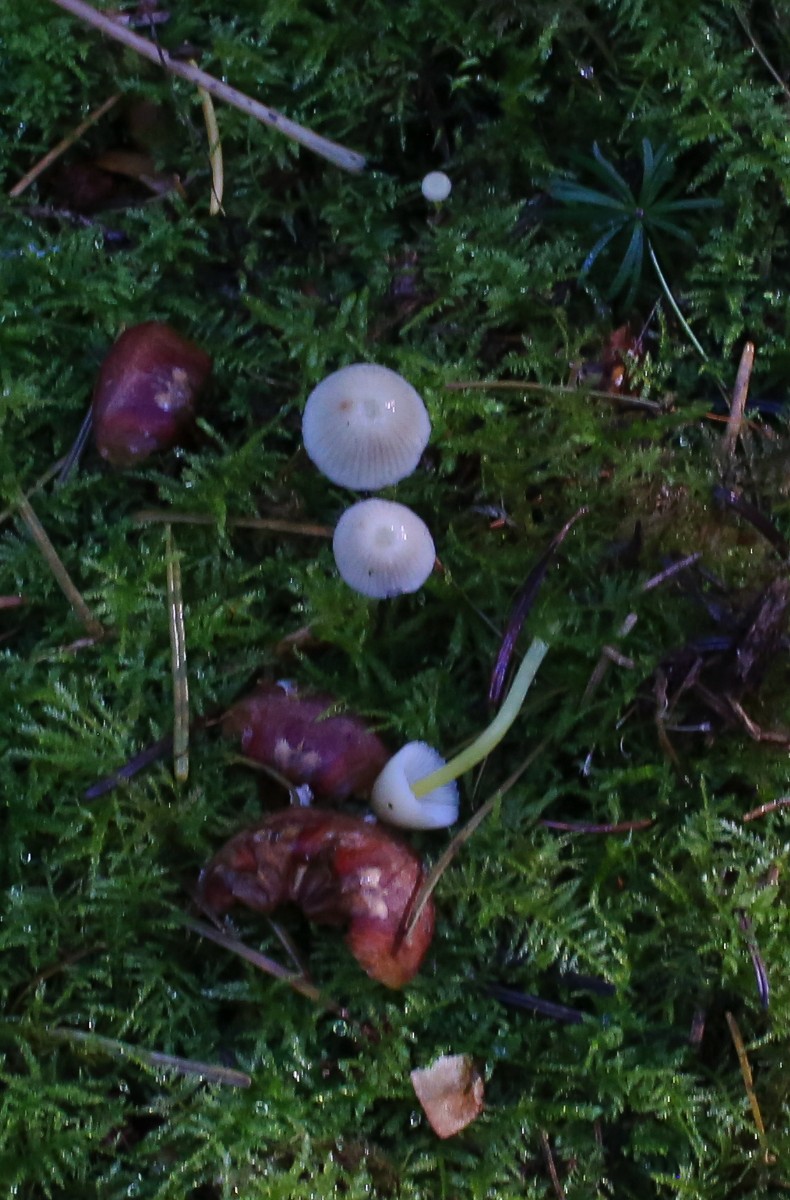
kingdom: Fungi
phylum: Basidiomycota
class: Agaricomycetes
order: Agaricales
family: Mycenaceae
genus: Mycena
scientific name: Mycena epipterygia
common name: gulstokket huesvamp
